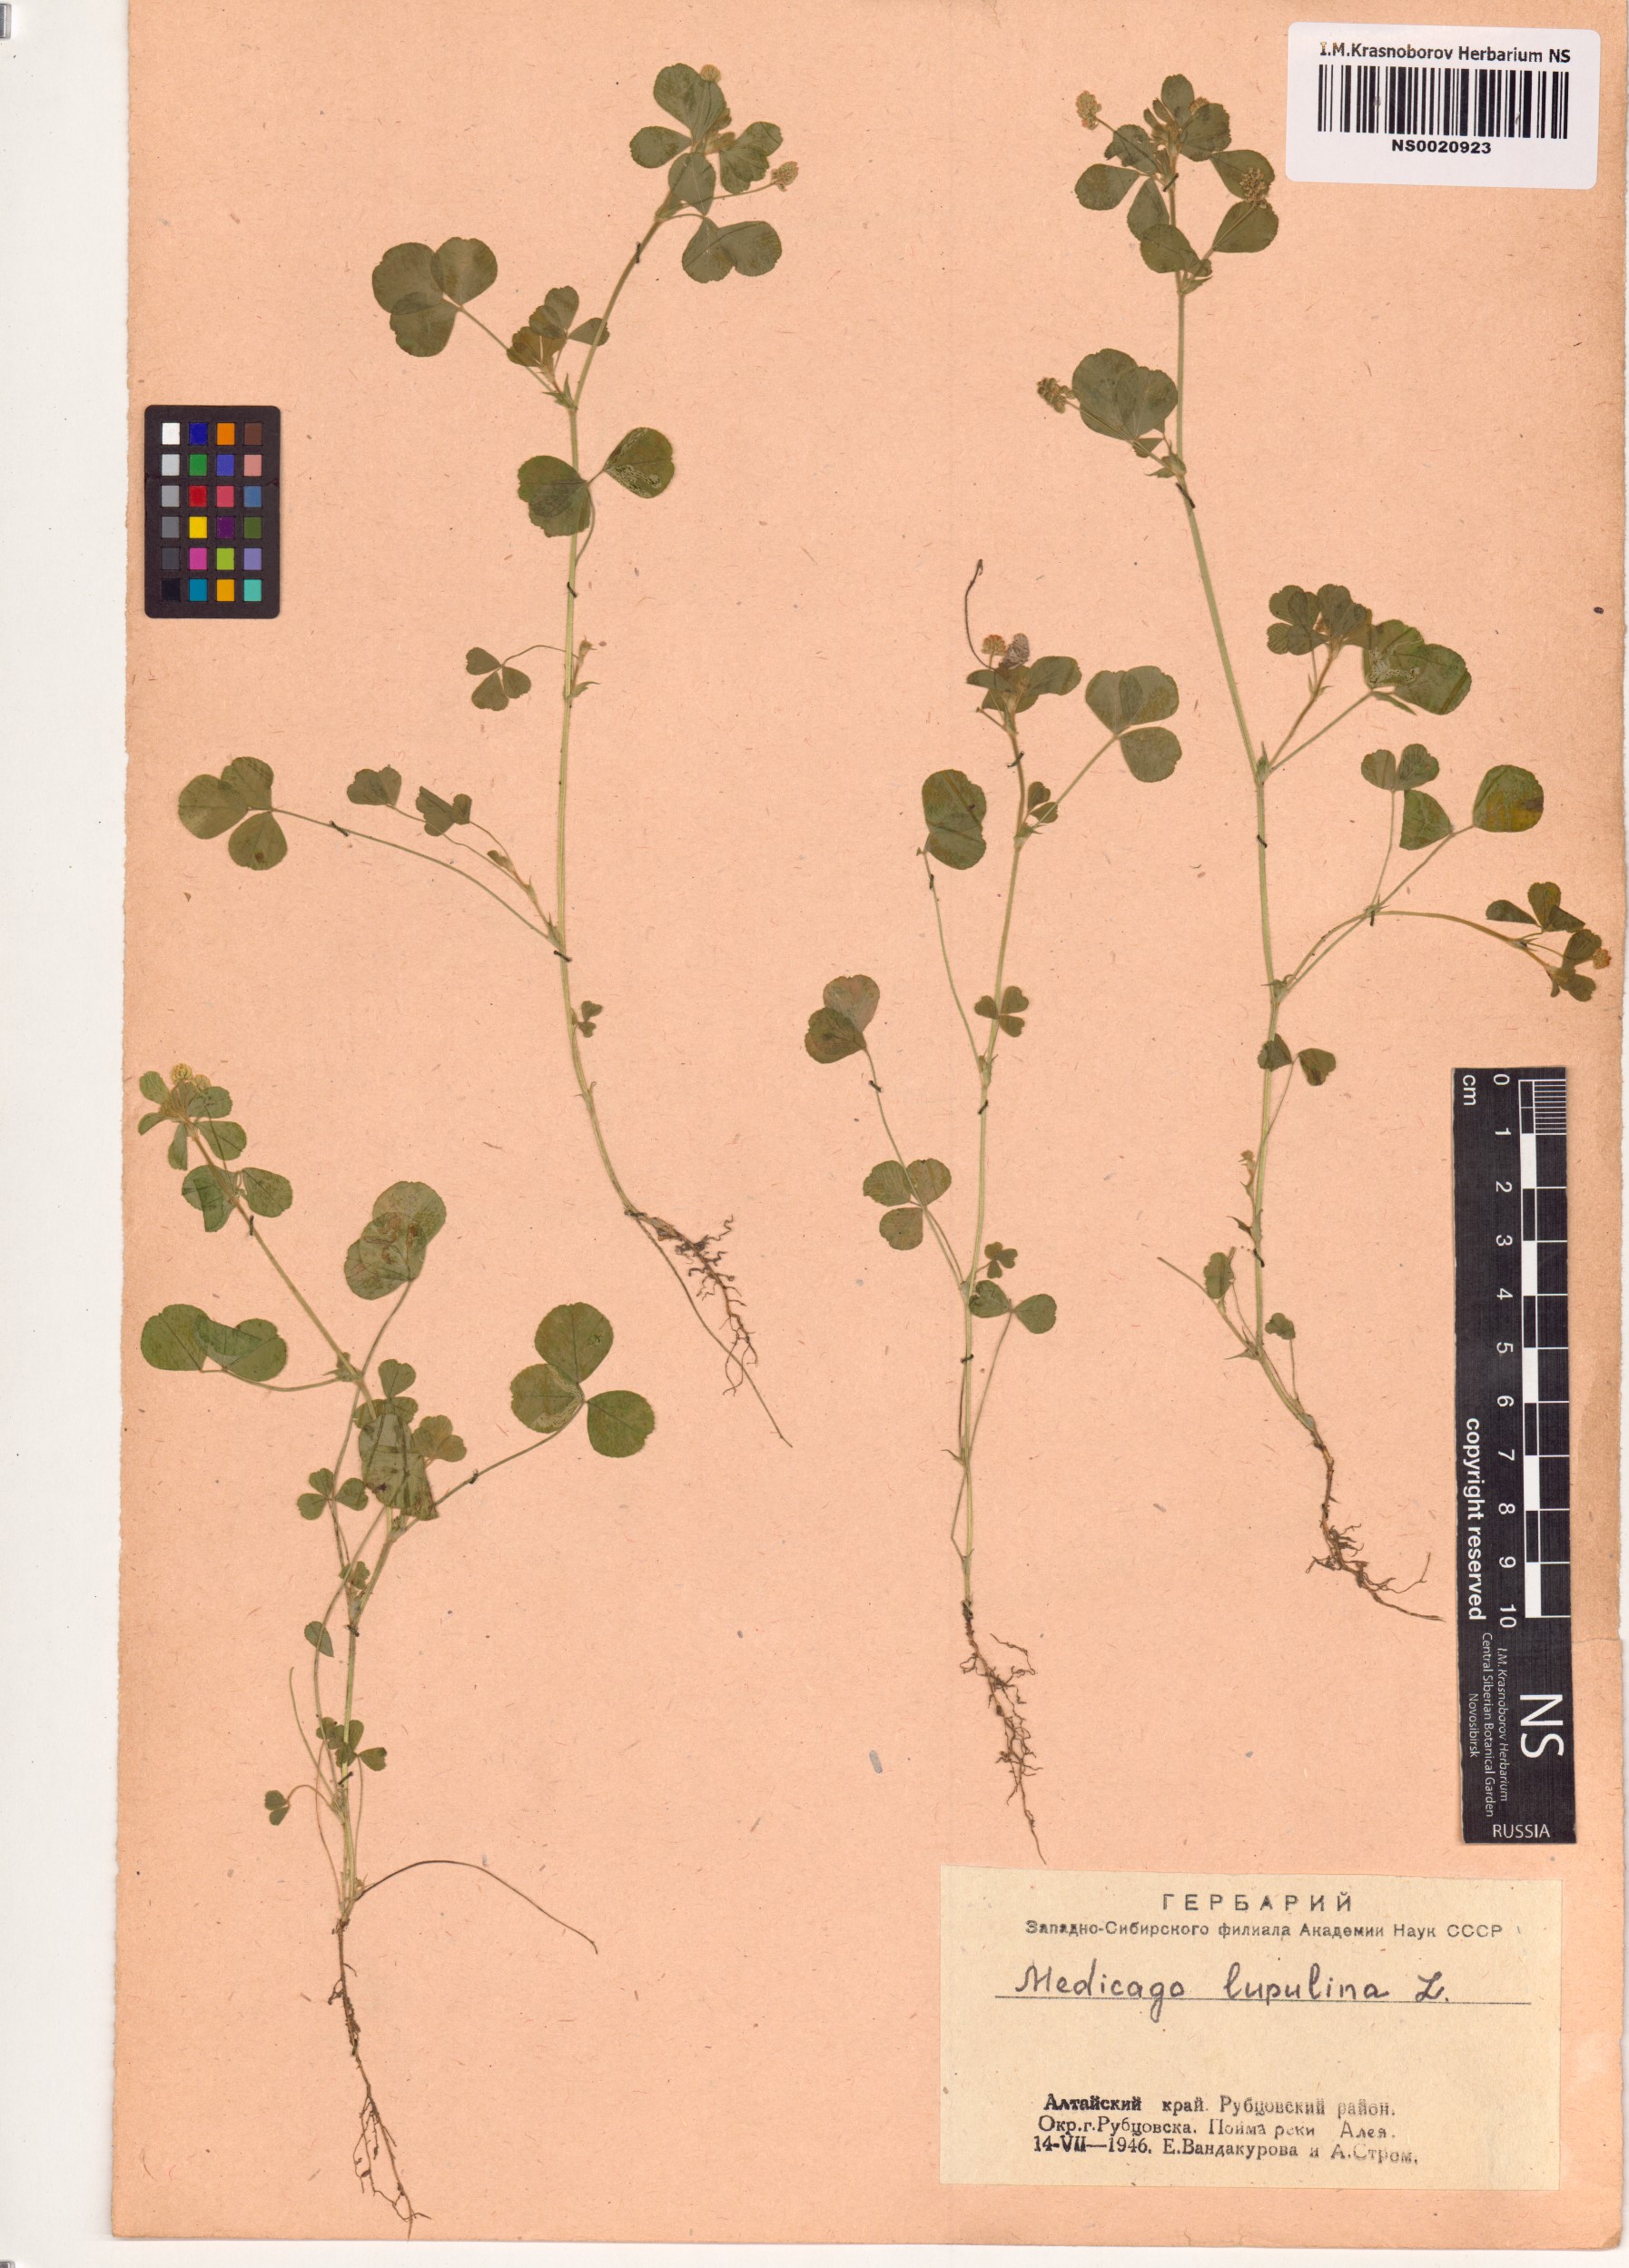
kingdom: Plantae
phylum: Tracheophyta
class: Magnoliopsida
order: Fabales
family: Fabaceae
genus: Medicago
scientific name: Medicago lupulina
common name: Black medick
